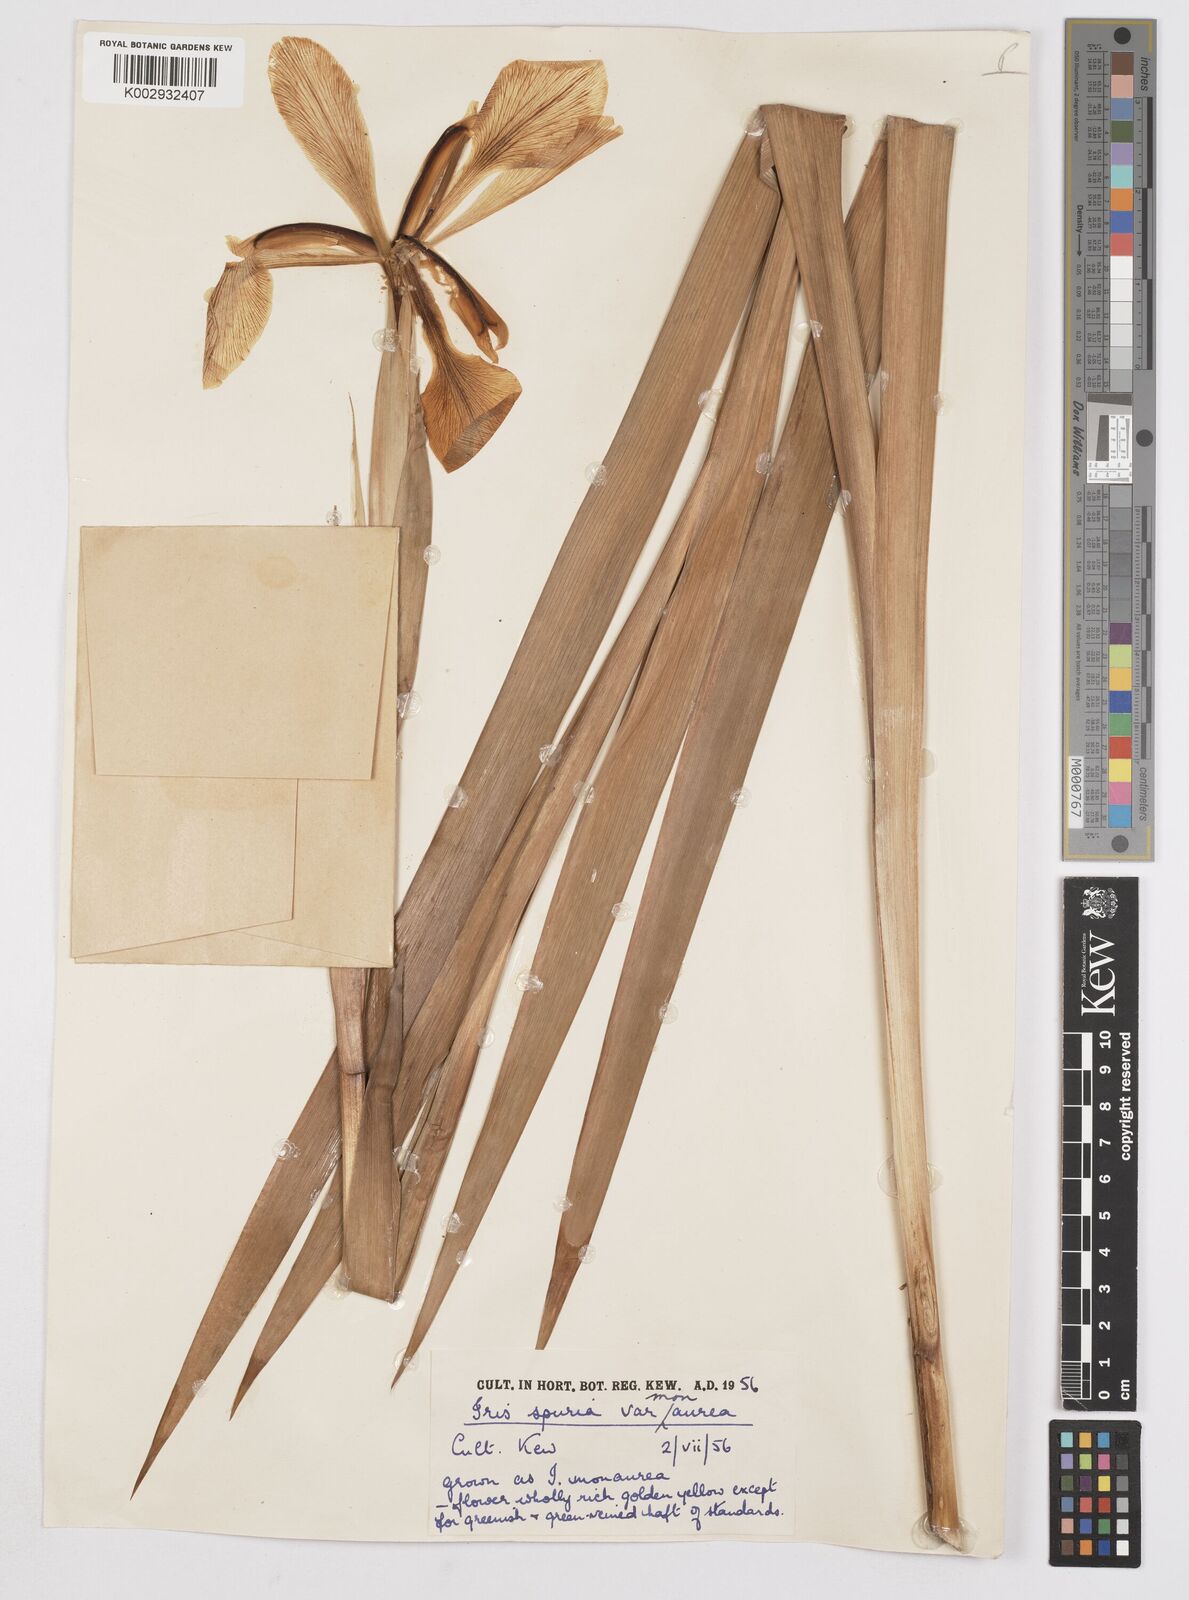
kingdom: Plantae
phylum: Tracheophyta
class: Liliopsida
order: Asparagales
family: Iridaceae
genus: Iris
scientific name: Iris spuria
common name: Blue iris
